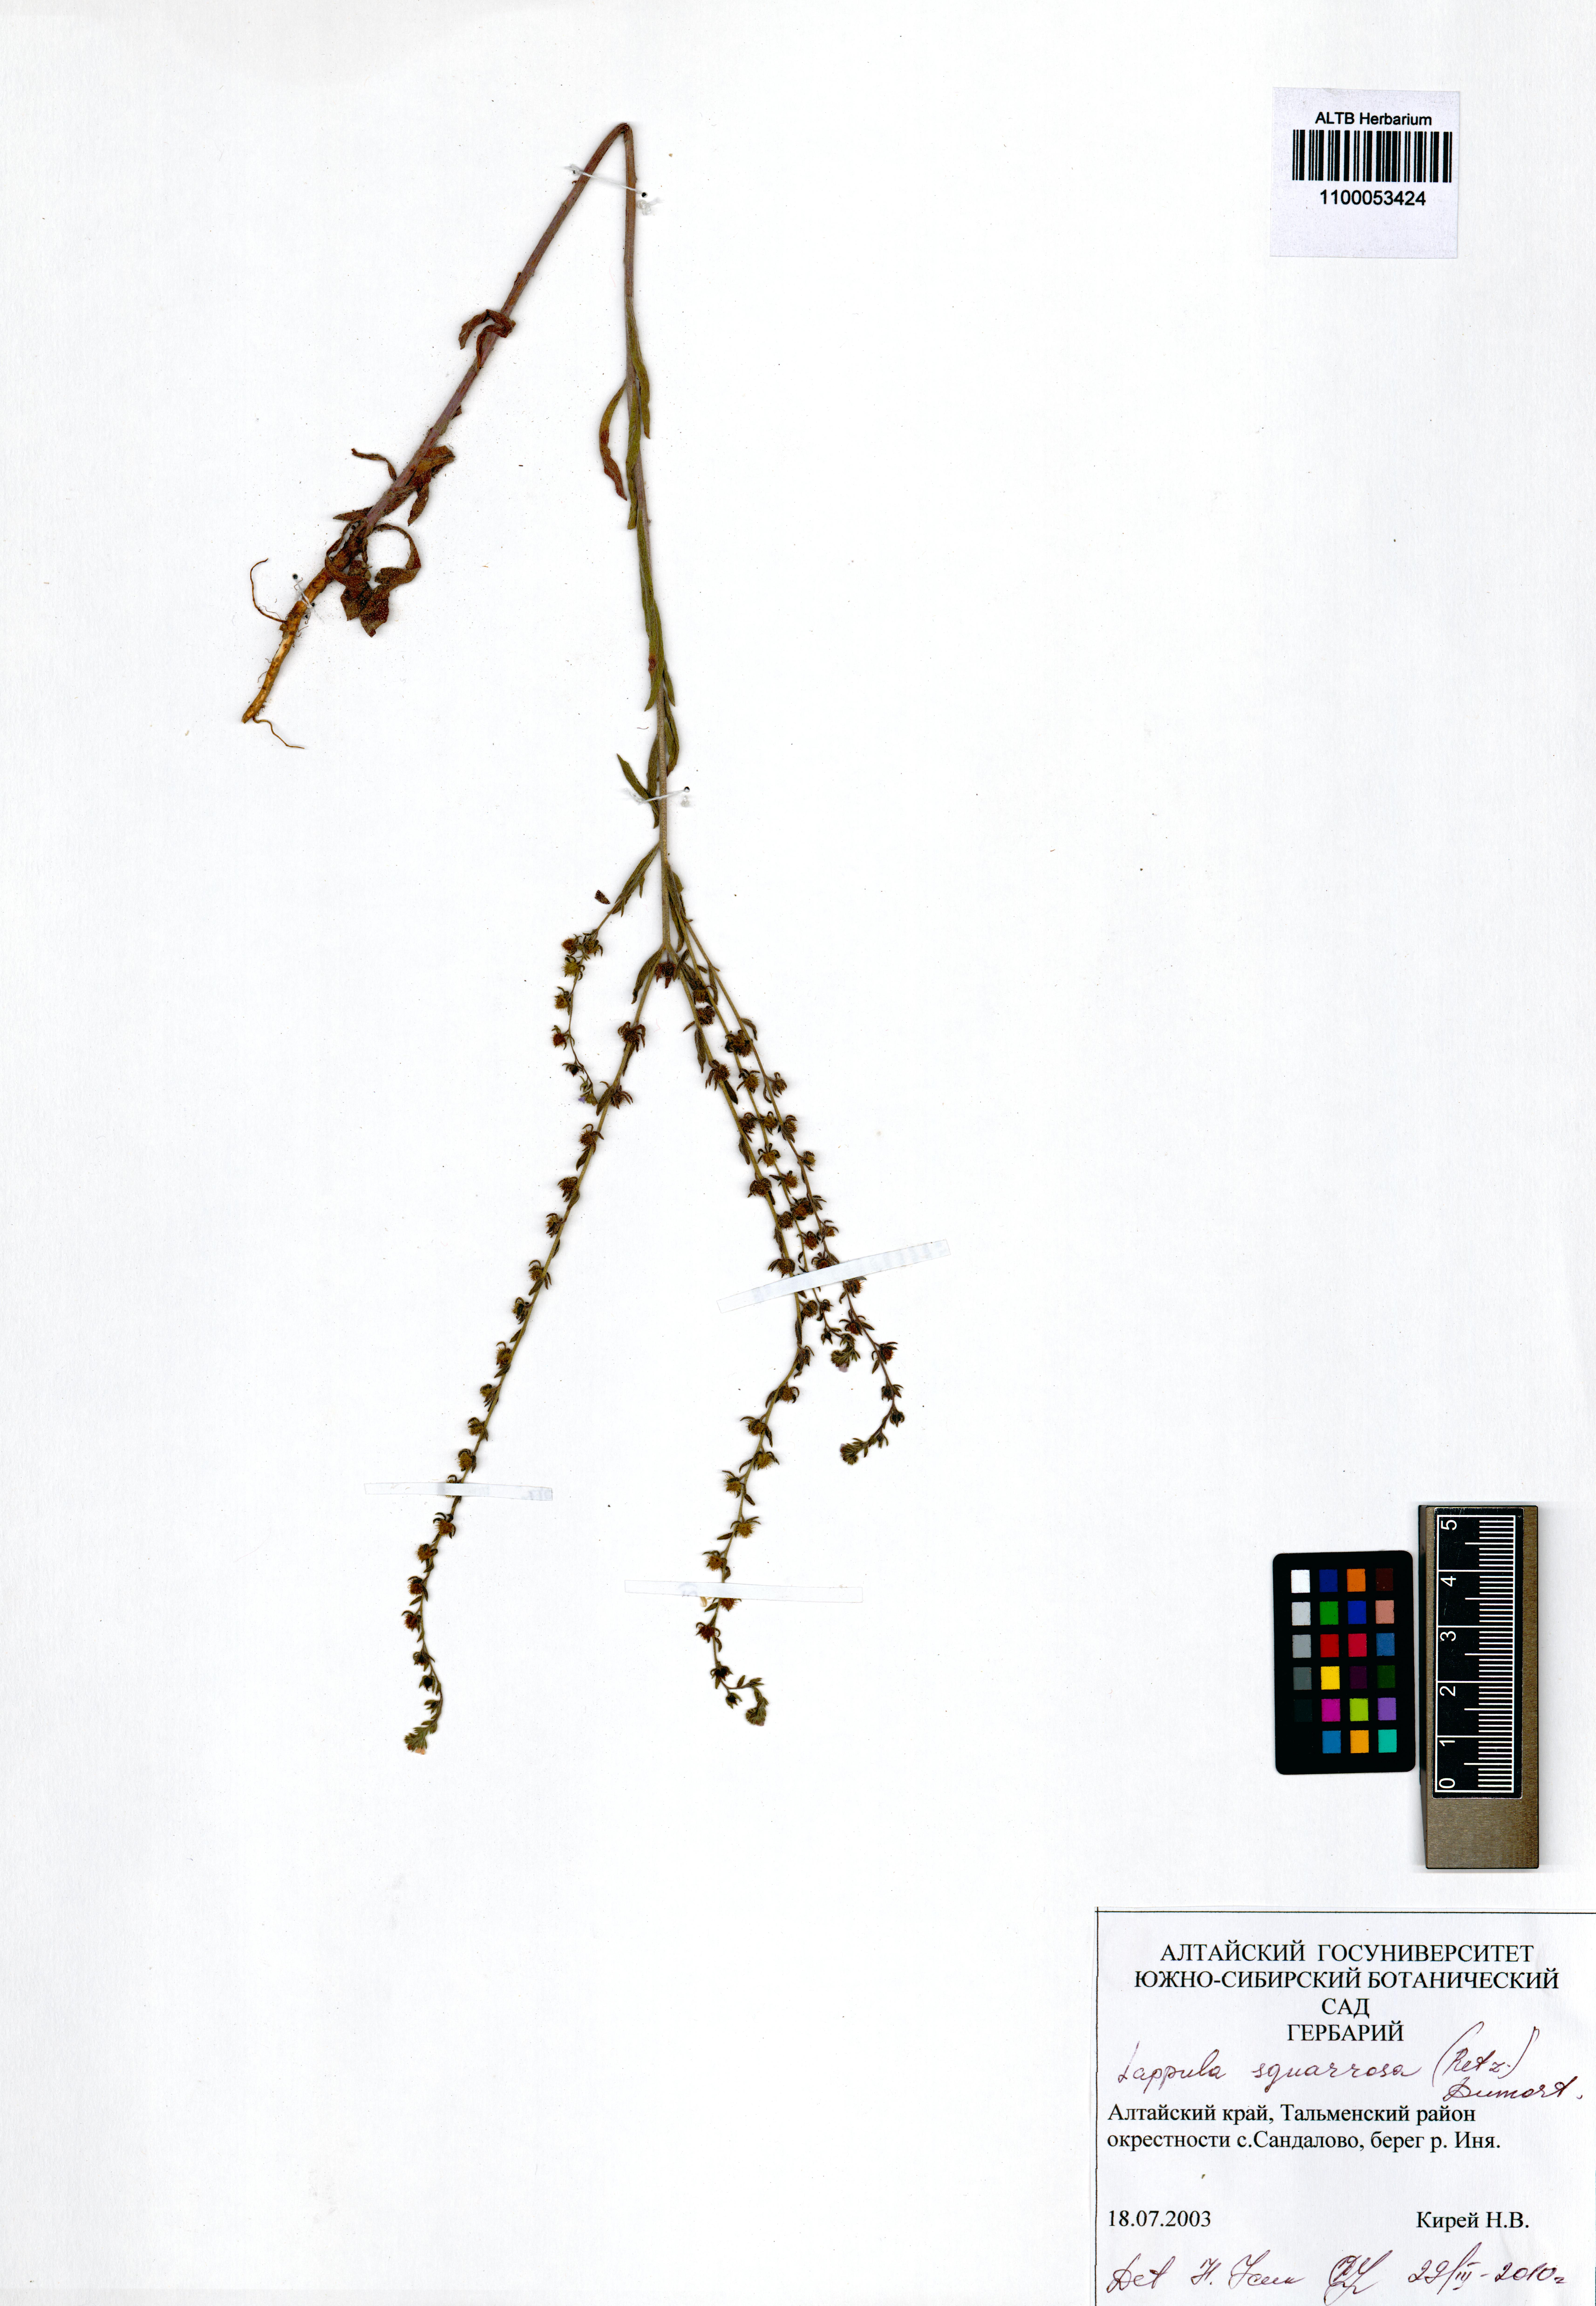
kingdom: Plantae
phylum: Tracheophyta
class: Magnoliopsida
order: Boraginales
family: Boraginaceae
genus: Lappula
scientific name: Lappula squarrosa
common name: European stickseed
